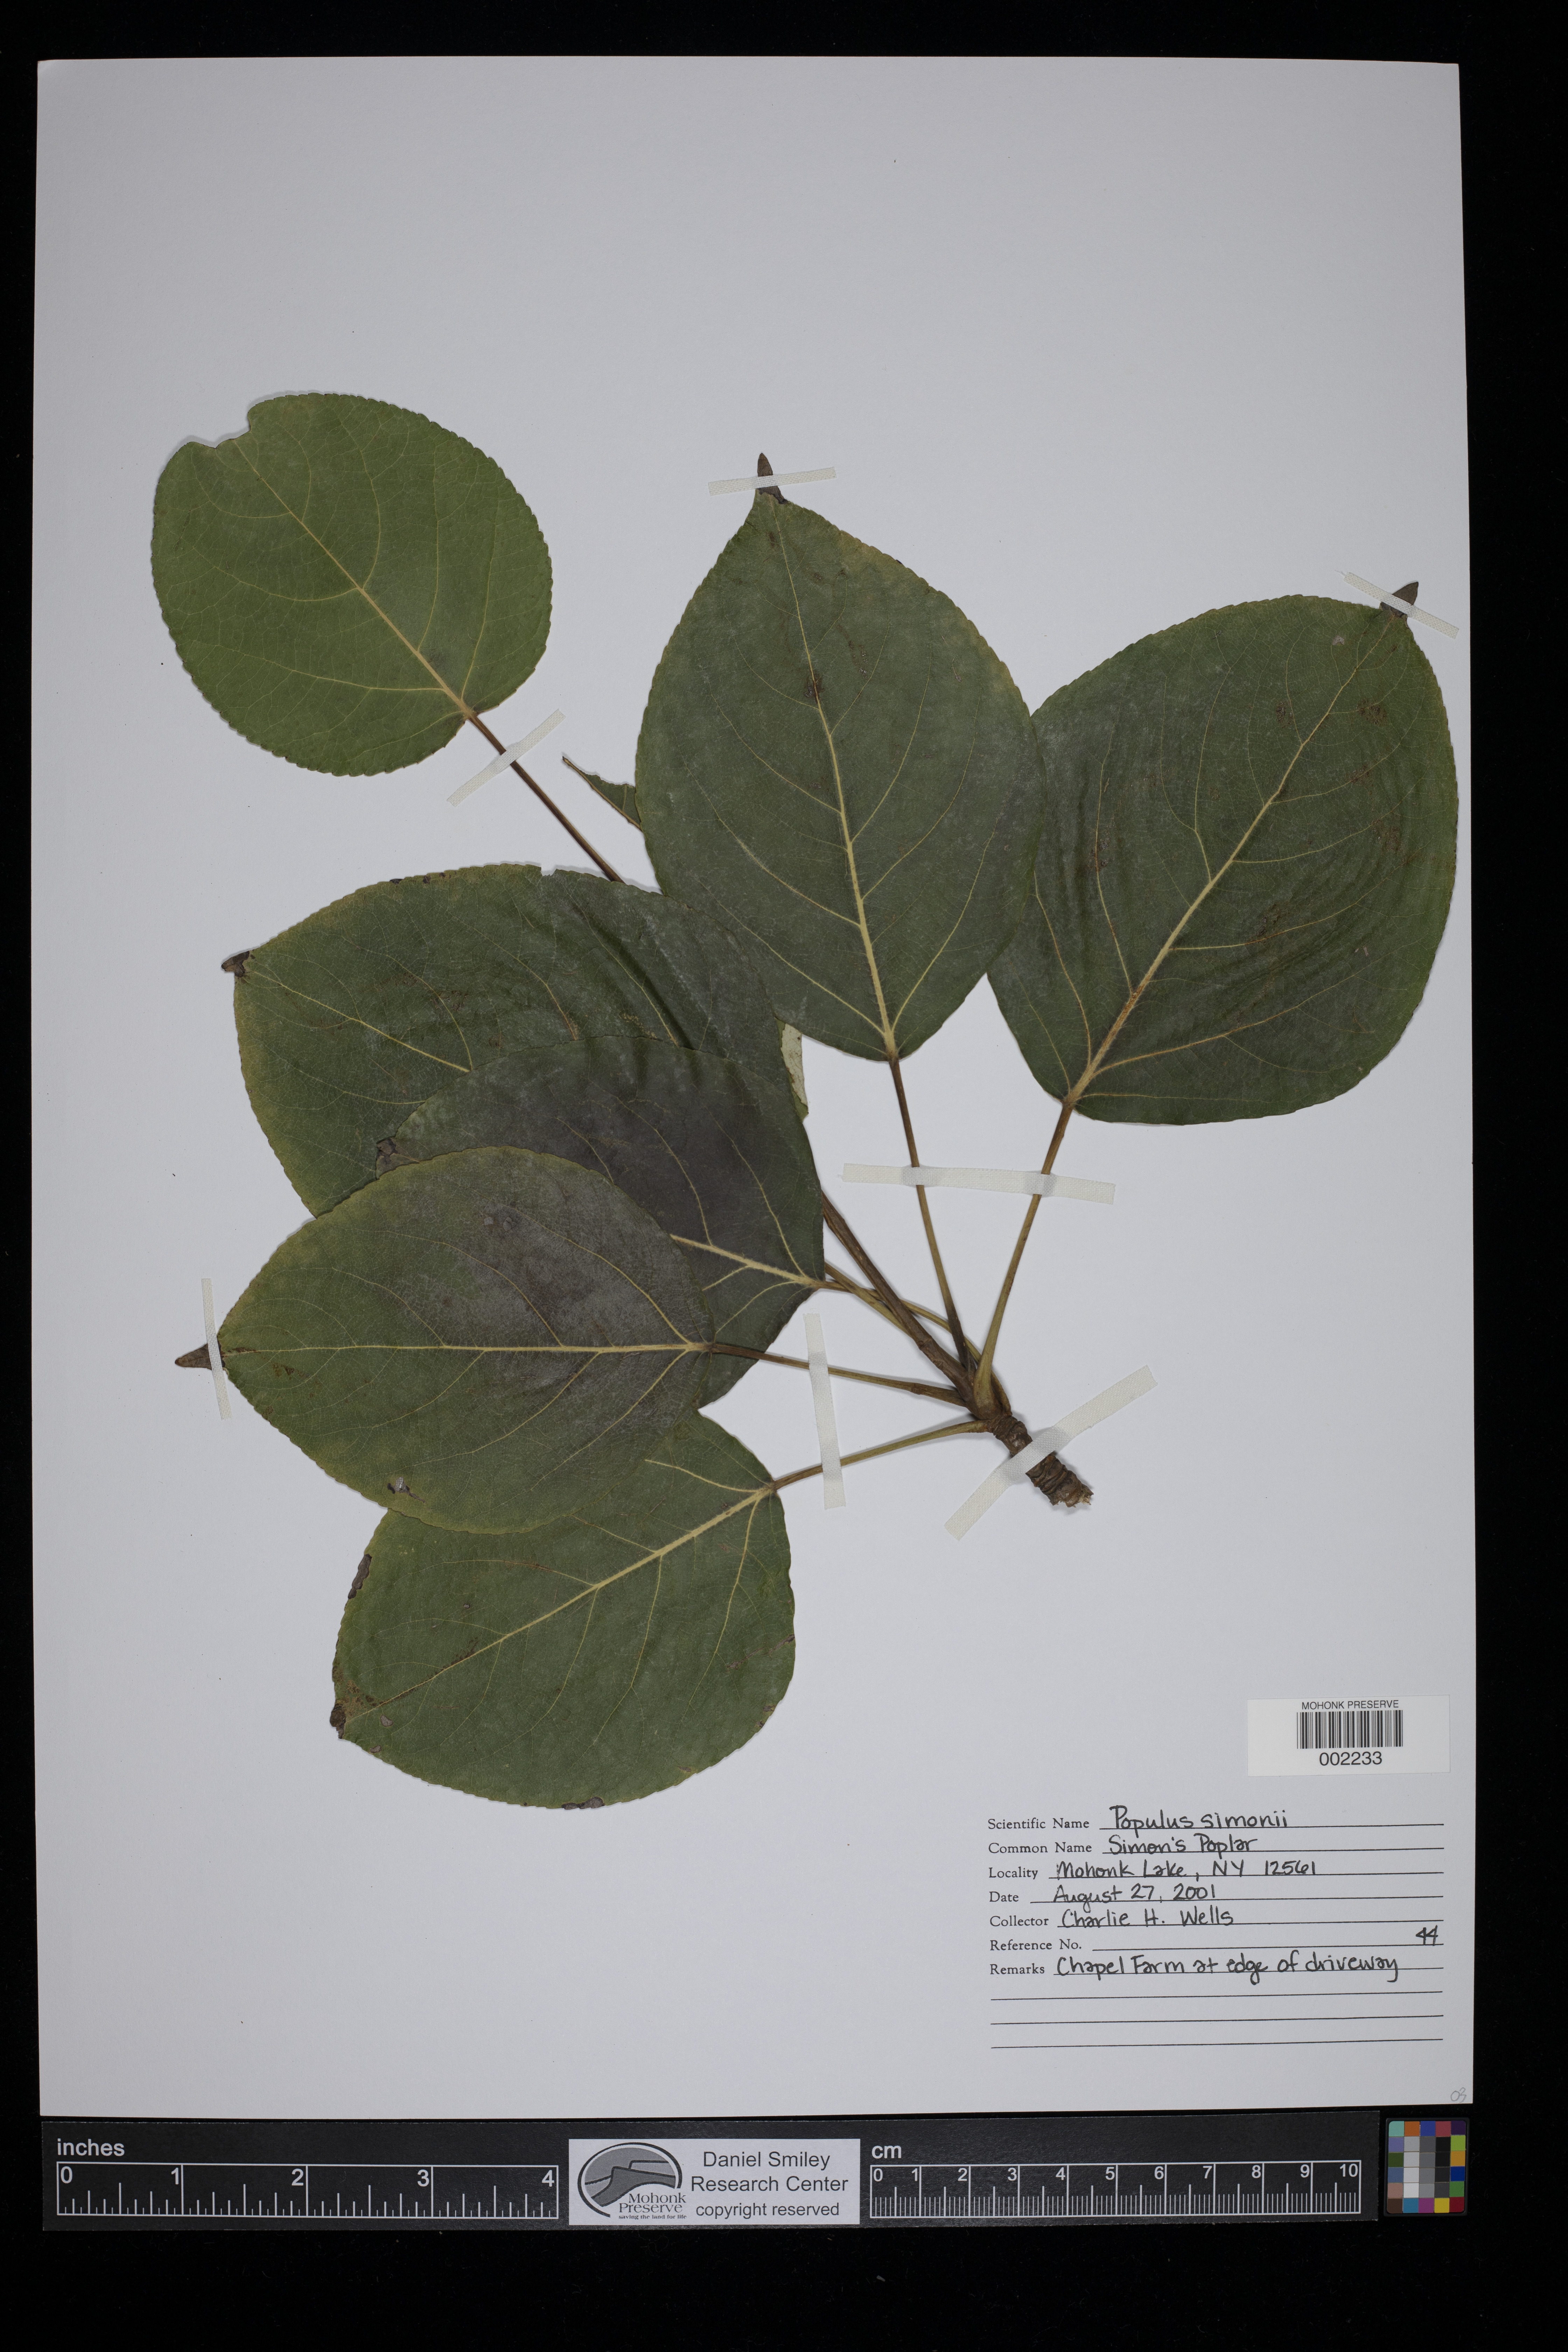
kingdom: Plantae
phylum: Tracheophyta
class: Magnoliopsida
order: Malpighiales
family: Salicaceae
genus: Populus
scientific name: Populus simonii
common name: Simon poplar
